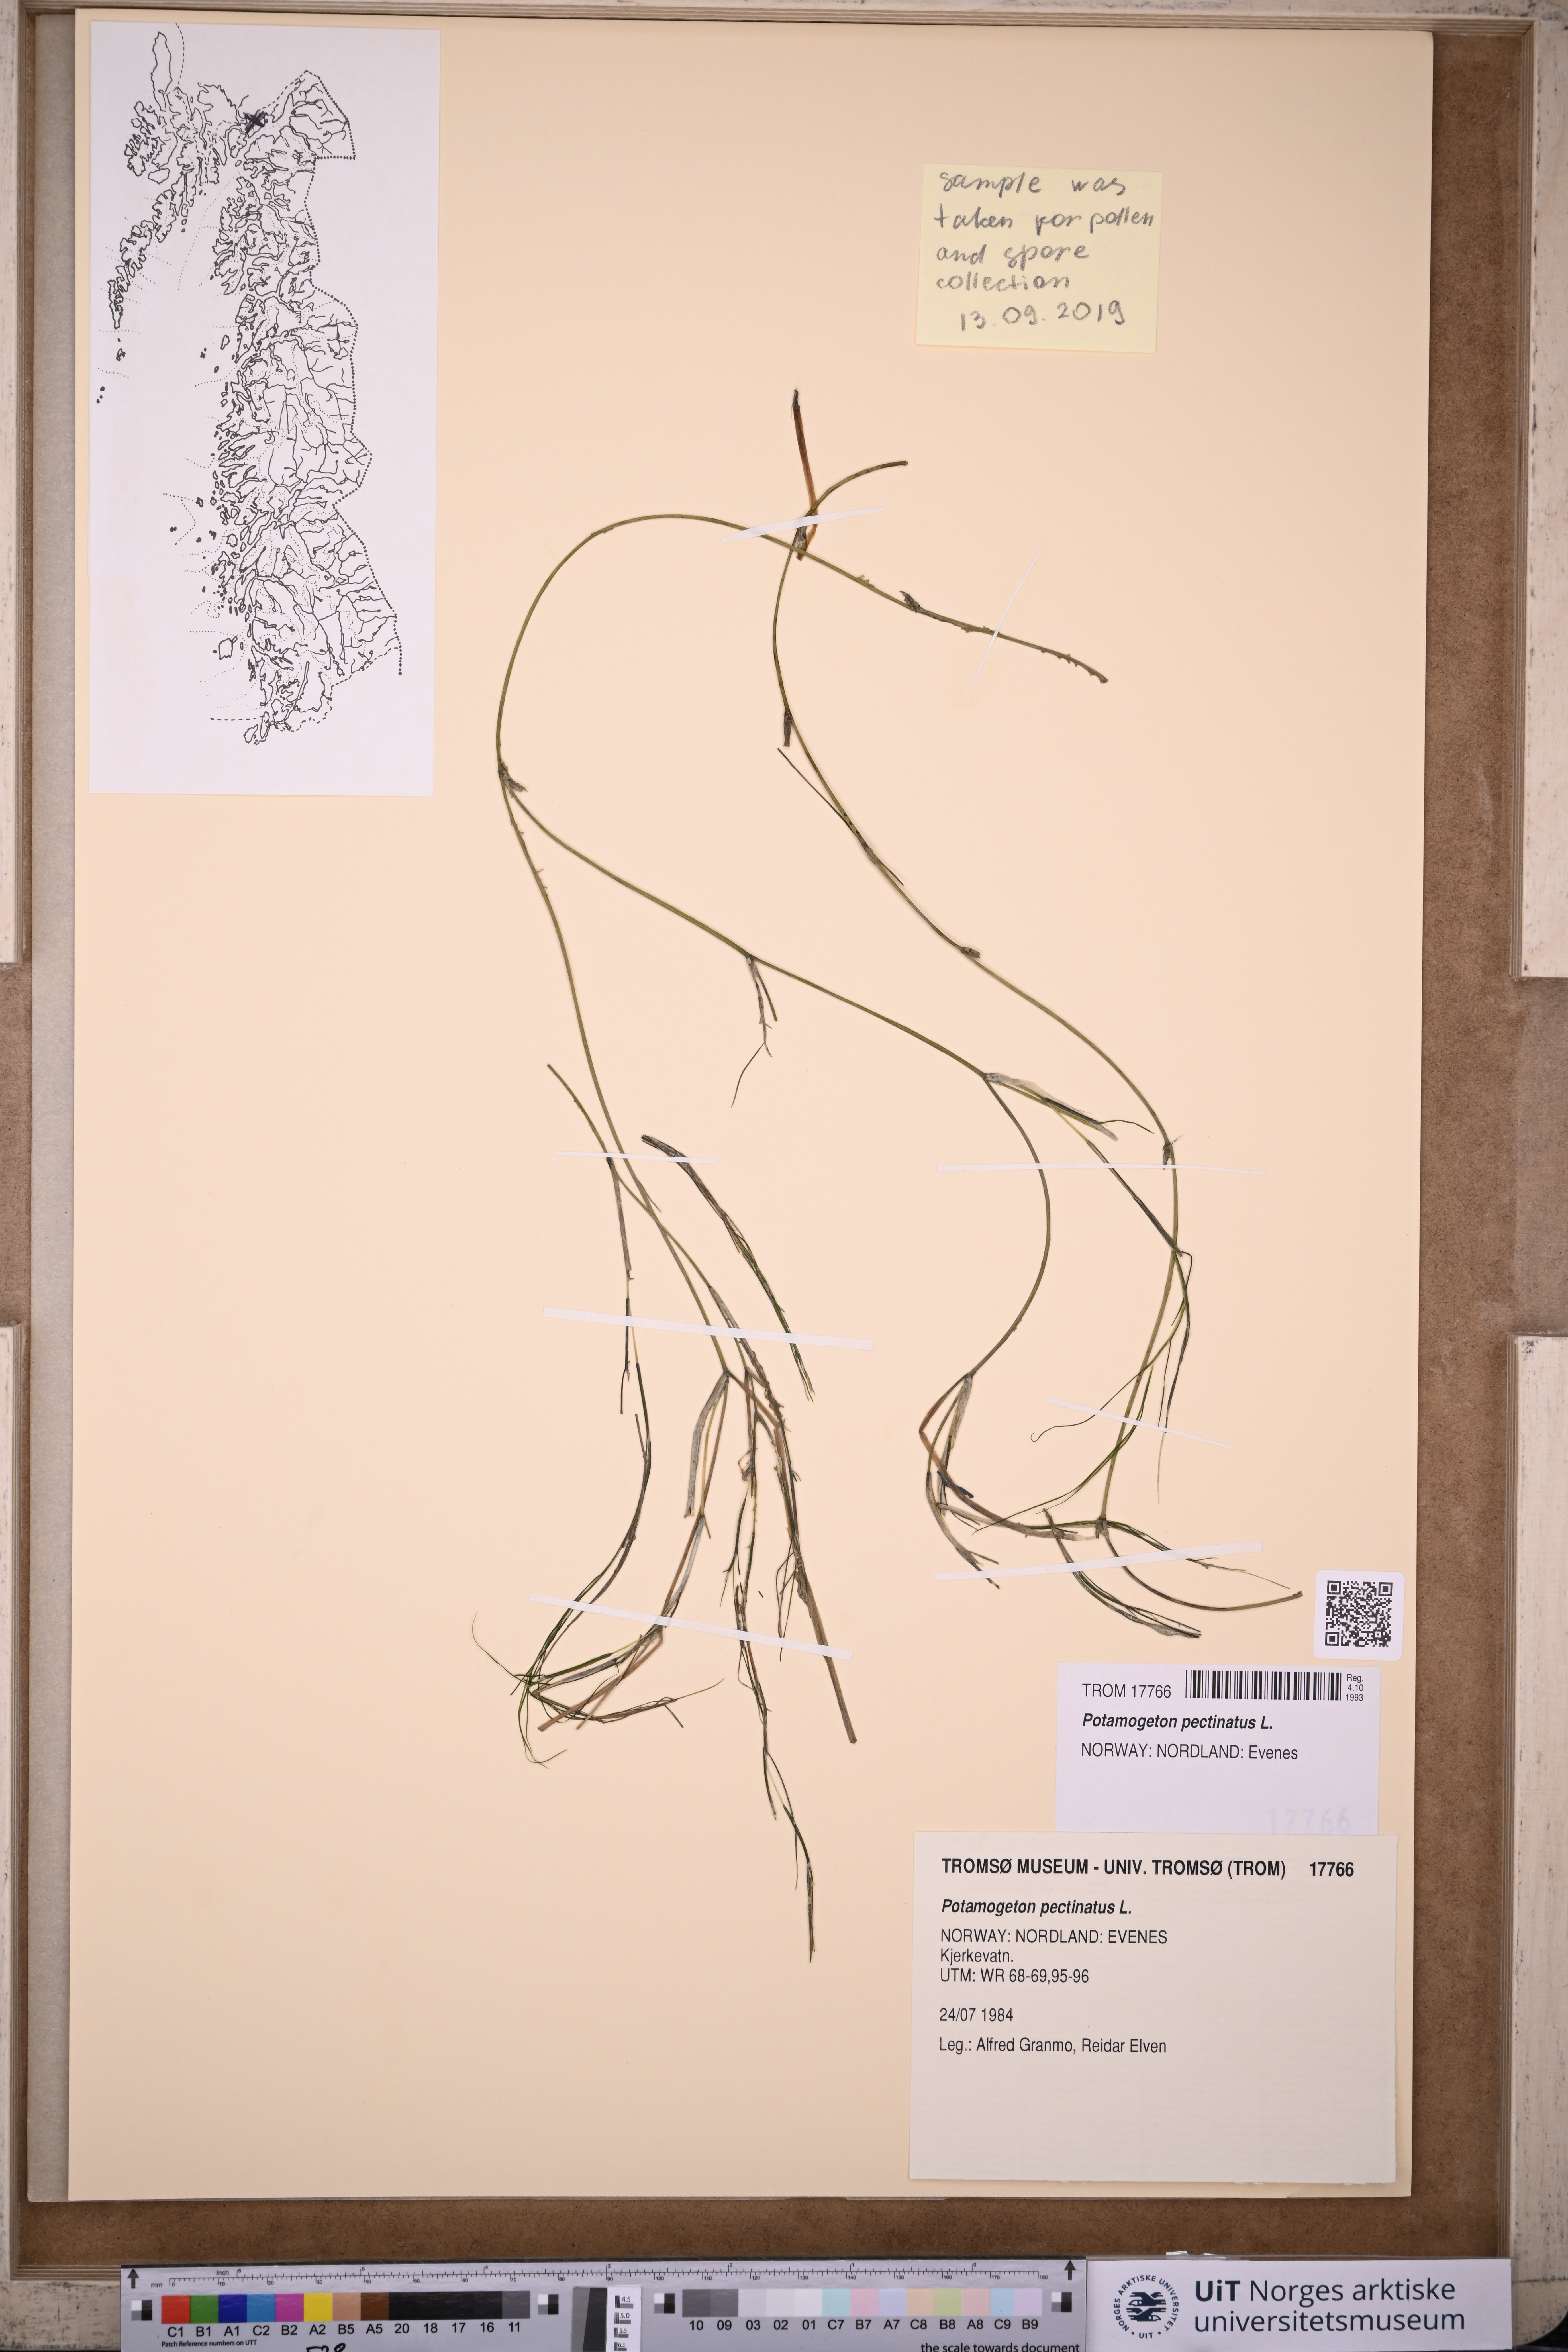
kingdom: Plantae
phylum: Tracheophyta
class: Liliopsida
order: Alismatales
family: Potamogetonaceae
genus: Stuckenia
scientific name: Stuckenia pectinata
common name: Sago pondweed
